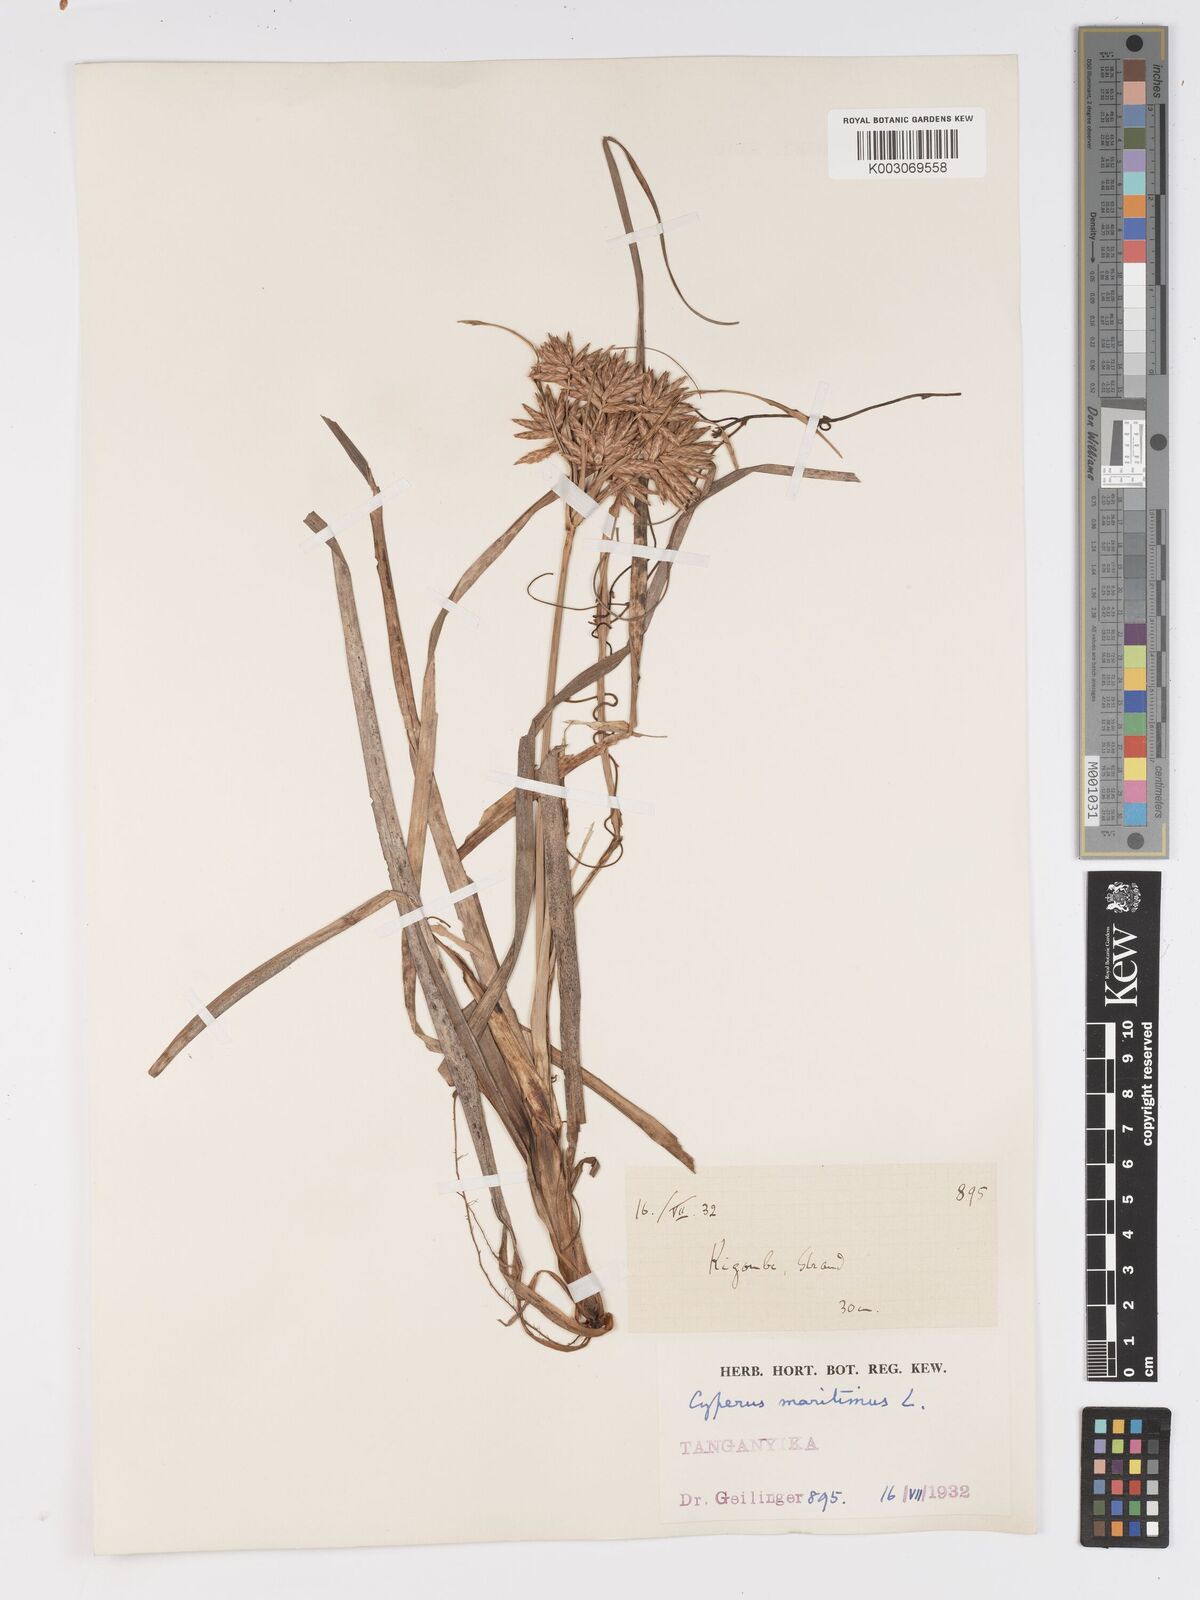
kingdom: Plantae
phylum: Tracheophyta
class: Liliopsida
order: Poales
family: Cyperaceae
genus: Cyperus
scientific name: Cyperus crassipes
